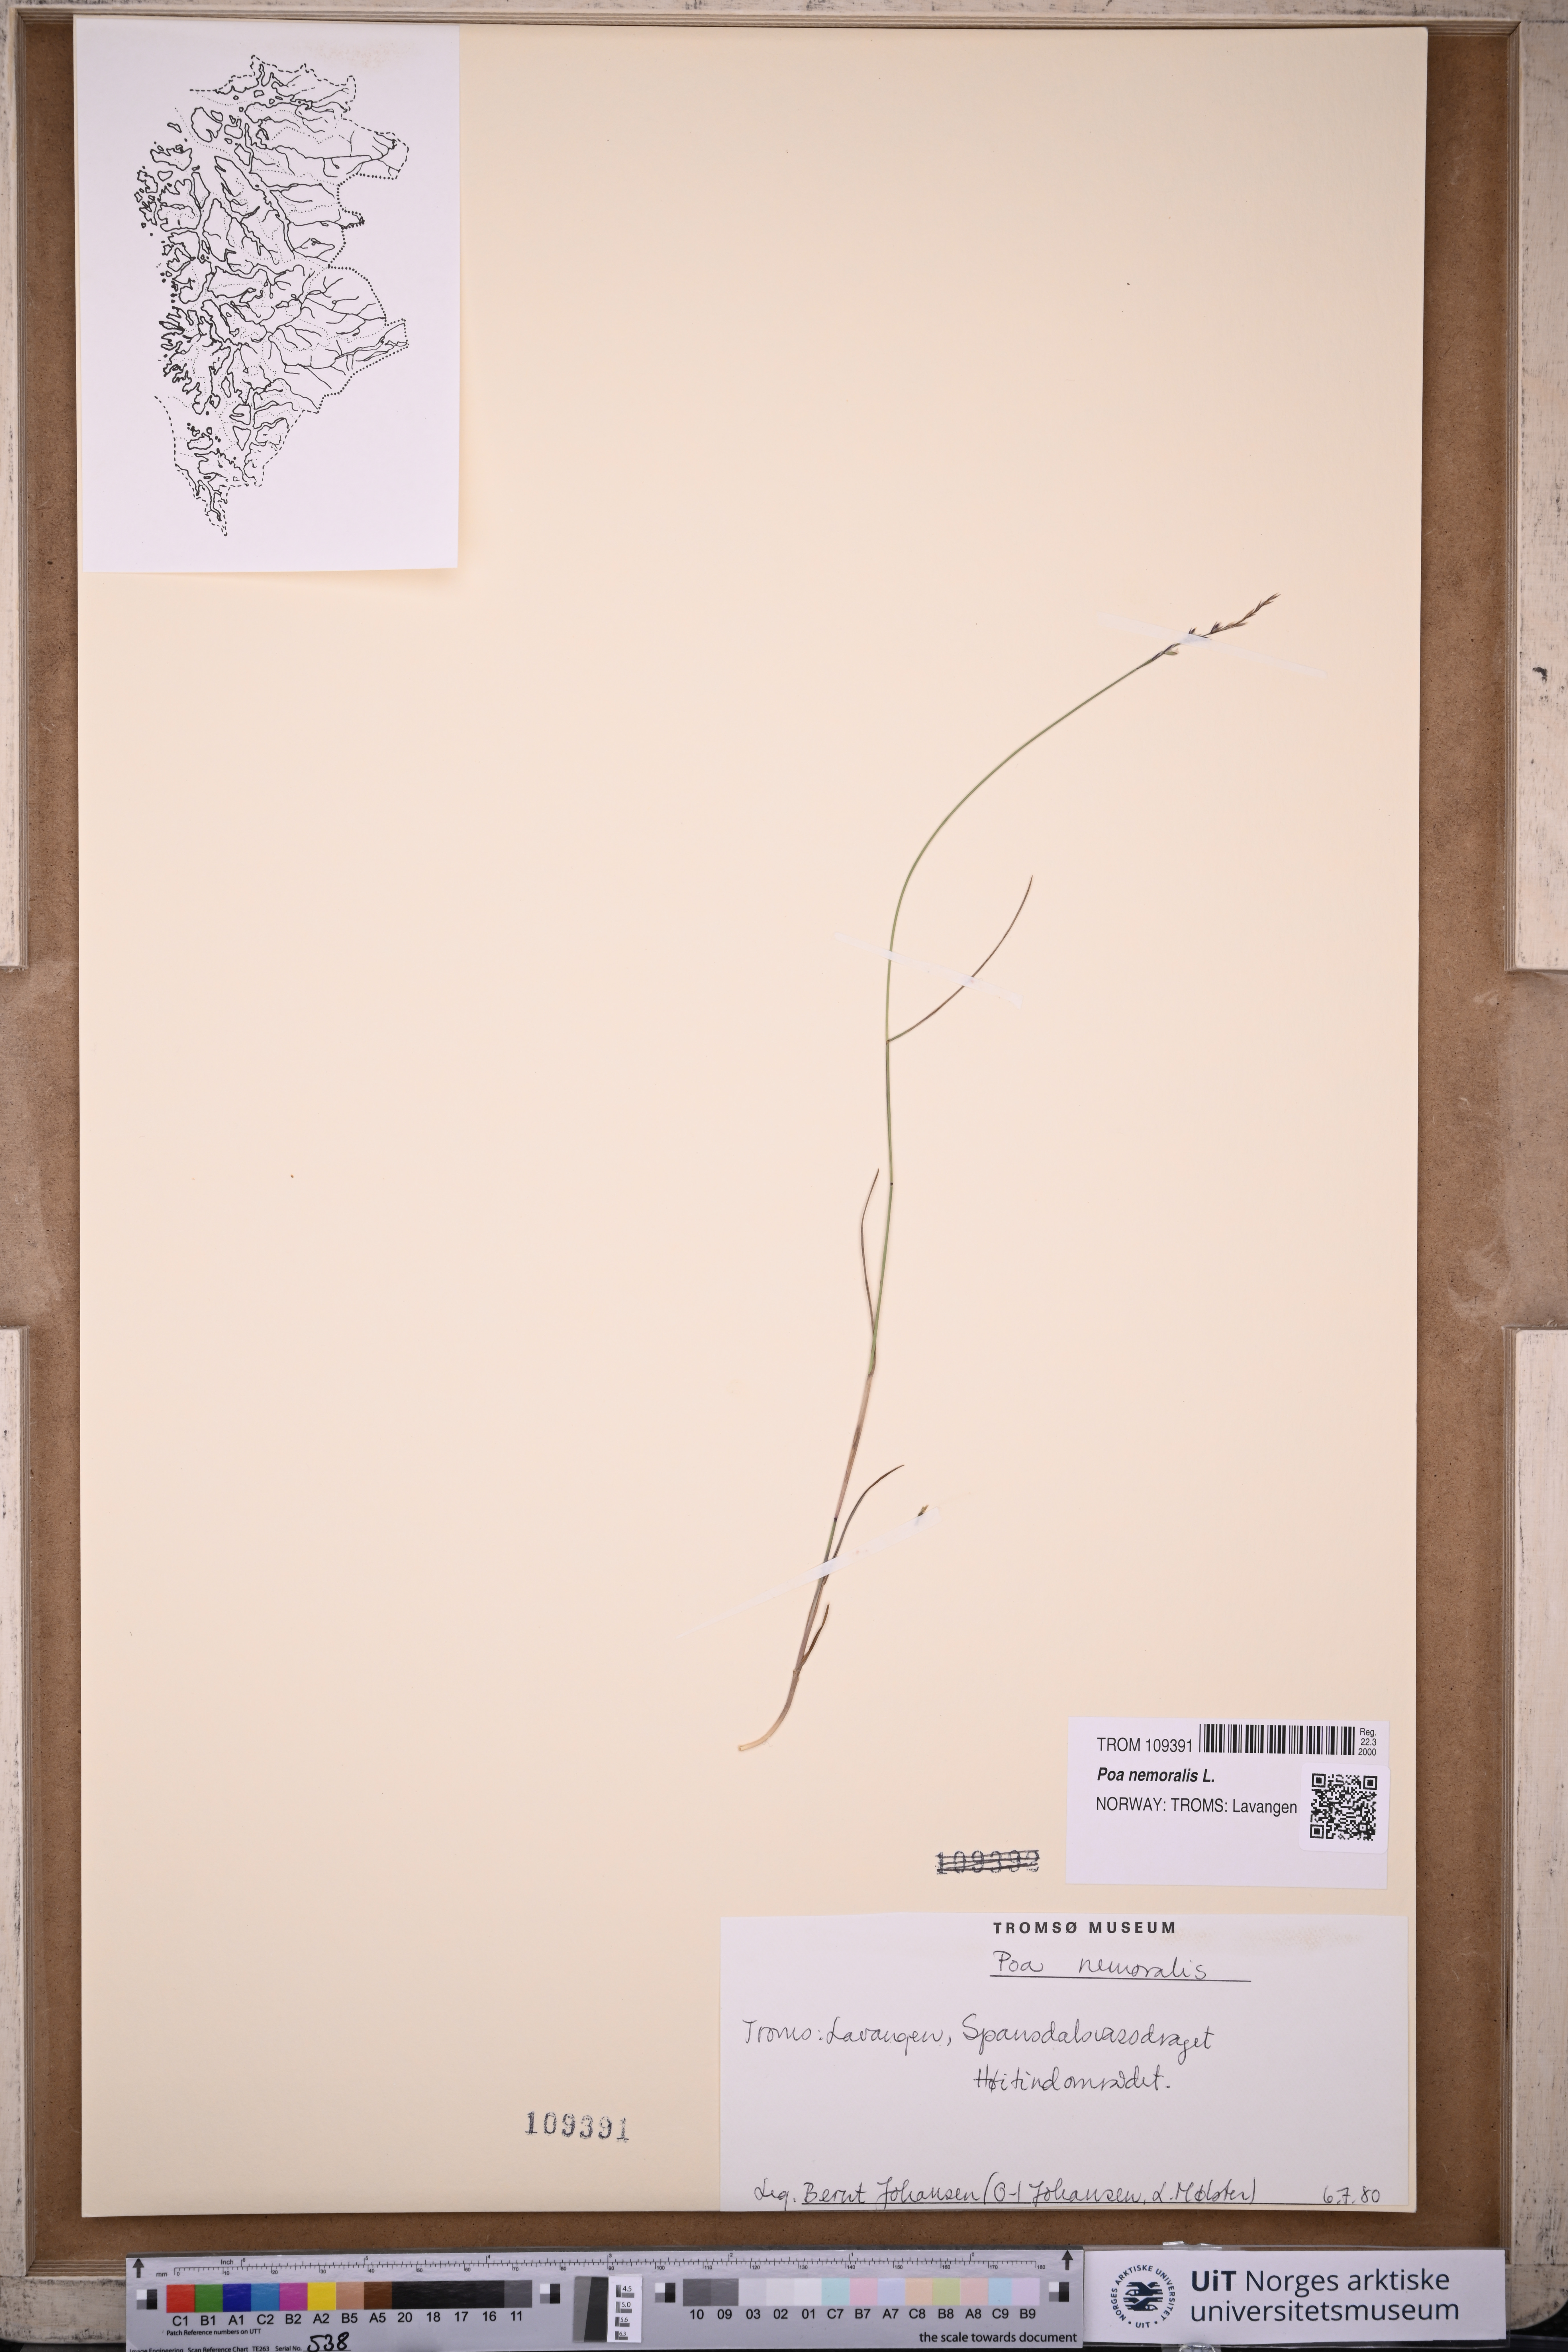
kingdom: Plantae
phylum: Tracheophyta
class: Liliopsida
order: Poales
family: Poaceae
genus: Poa
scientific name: Poa nemoralis
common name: Wood bluegrass
